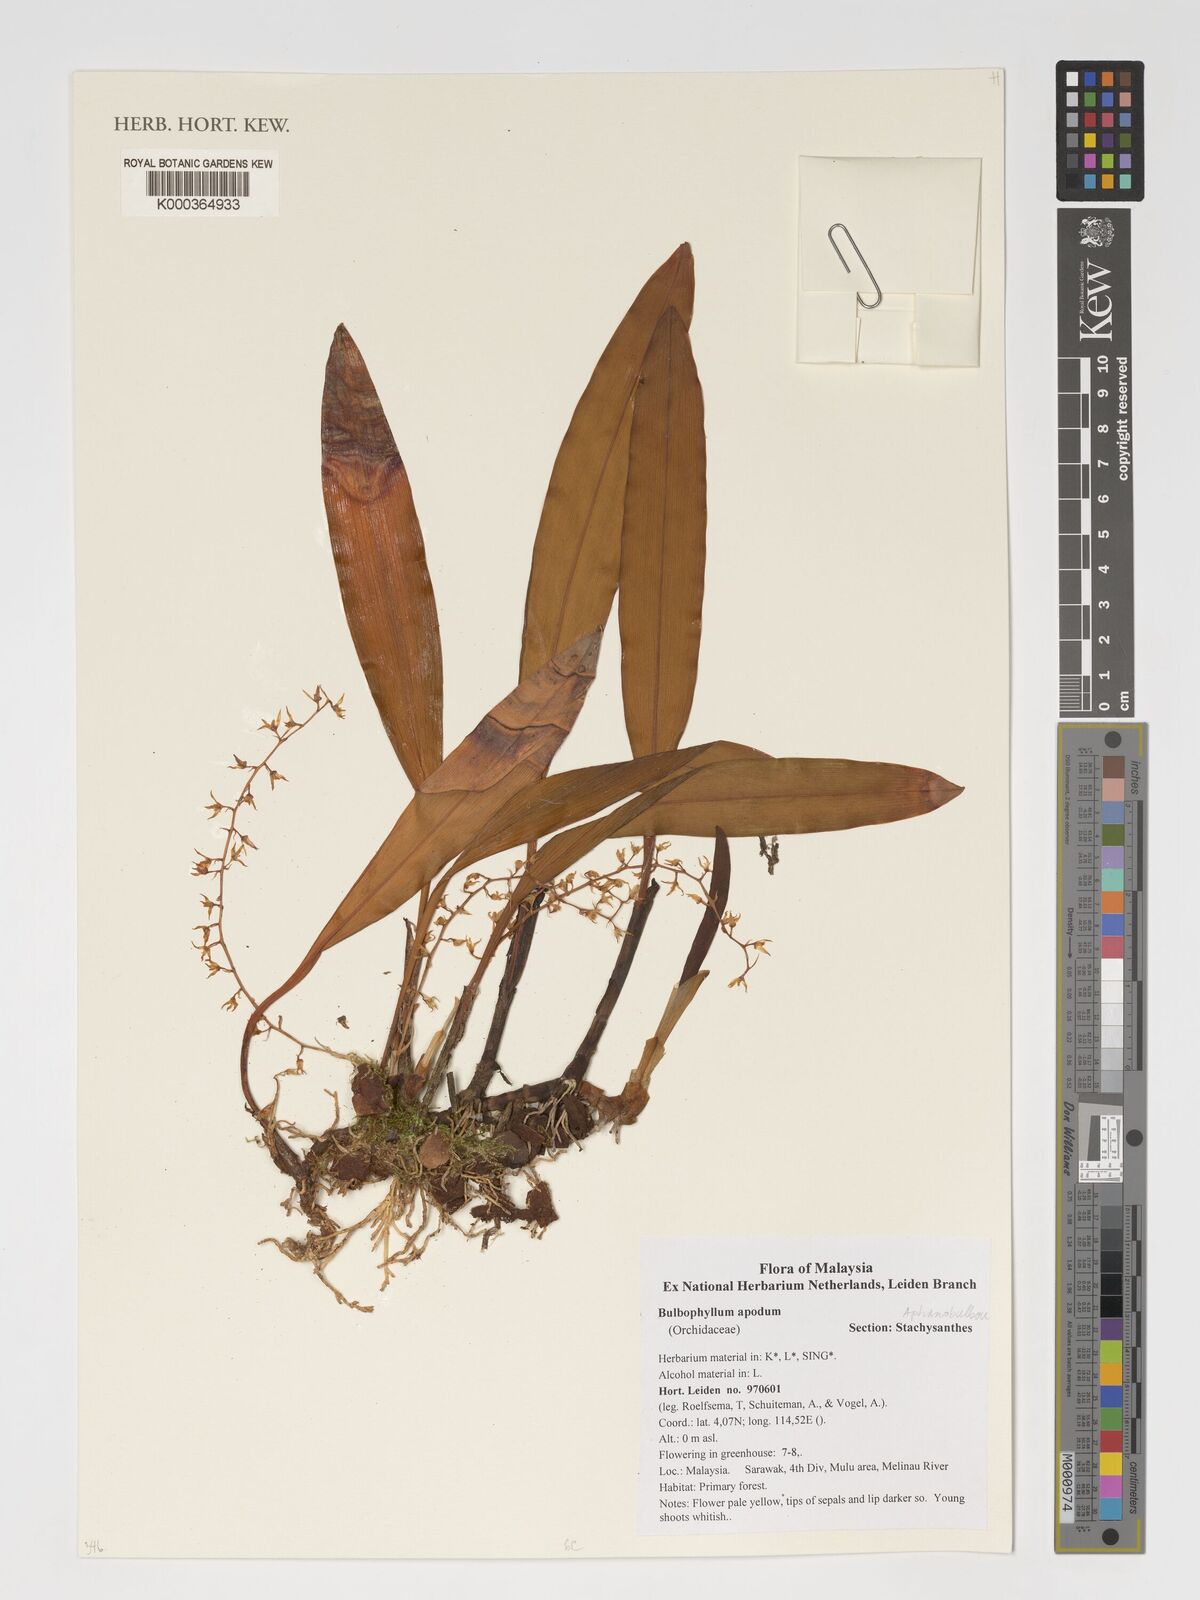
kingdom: Plantae
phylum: Tracheophyta
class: Liliopsida
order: Asparagales
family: Orchidaceae
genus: Bulbophyllum
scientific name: Bulbophyllum apodum
